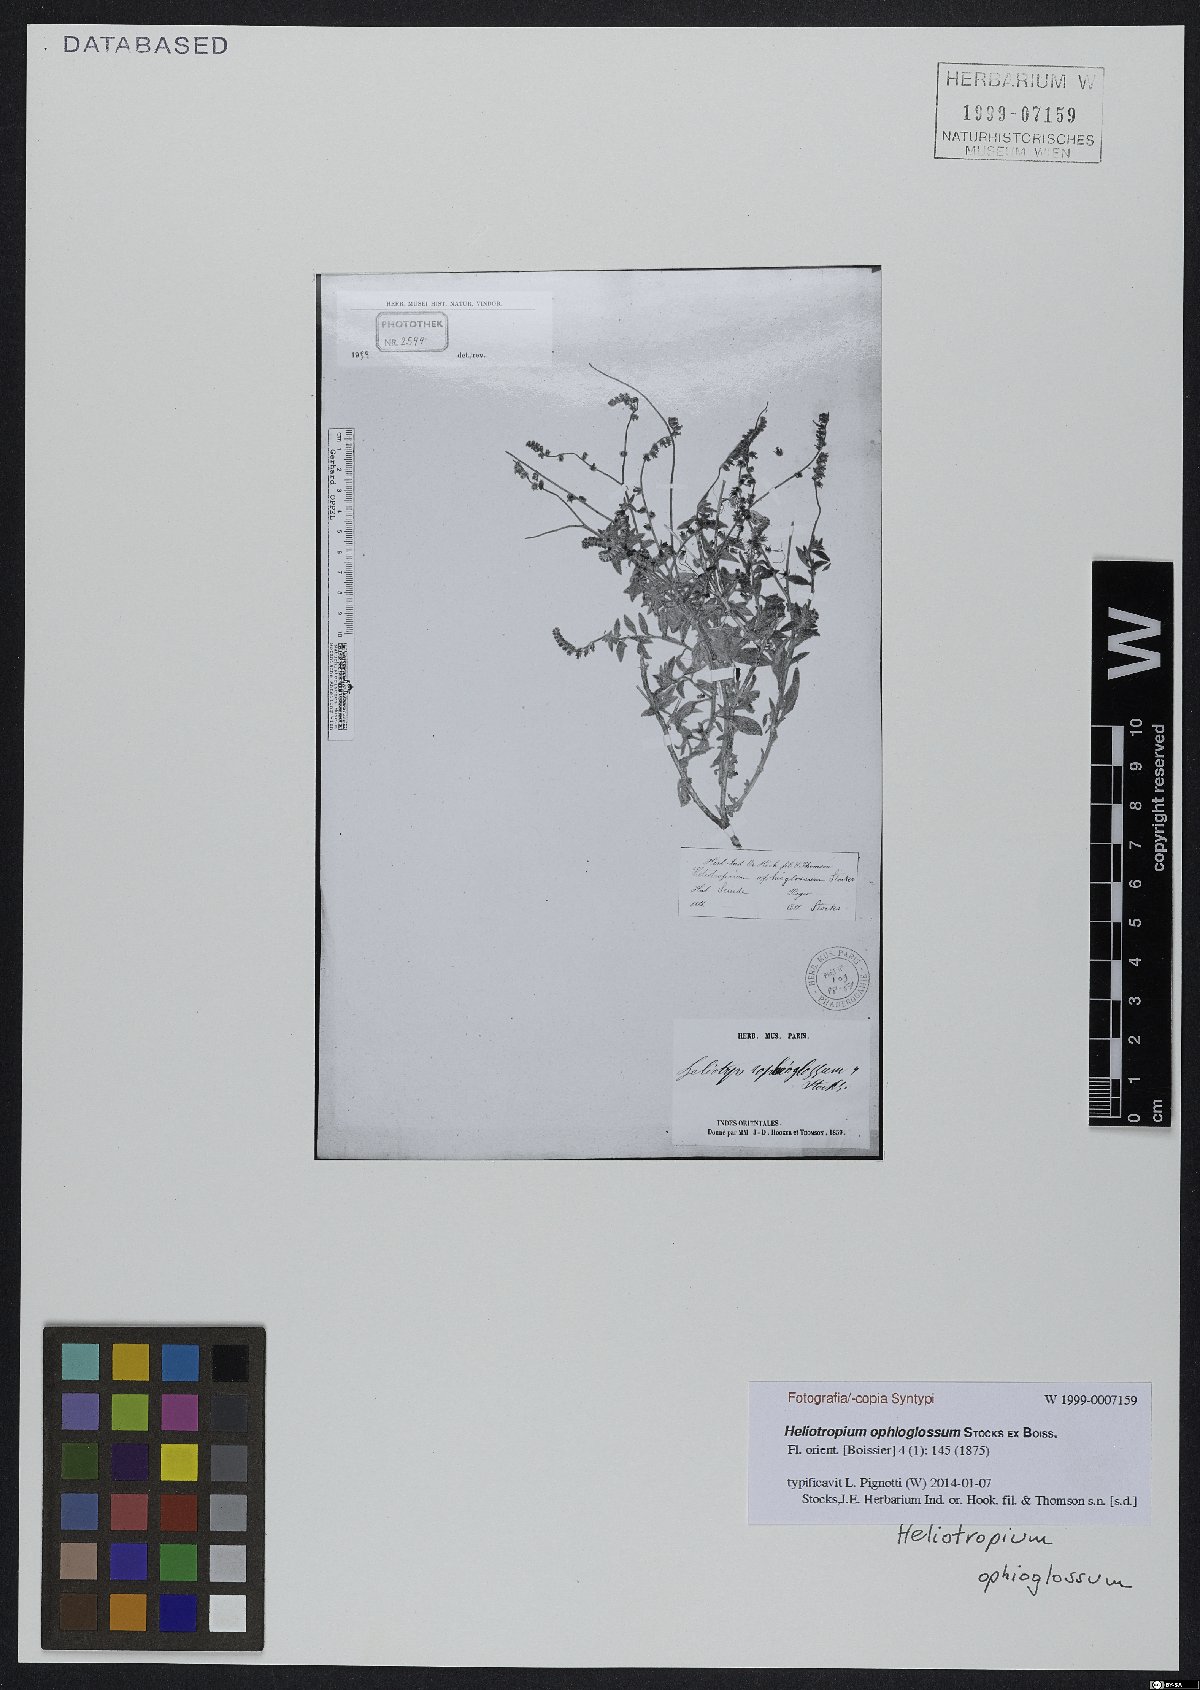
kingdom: Plantae
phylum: Tracheophyta
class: Magnoliopsida
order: Boraginales
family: Heliotropiaceae
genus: Heliotropium
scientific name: Heliotropium ophioglossum
